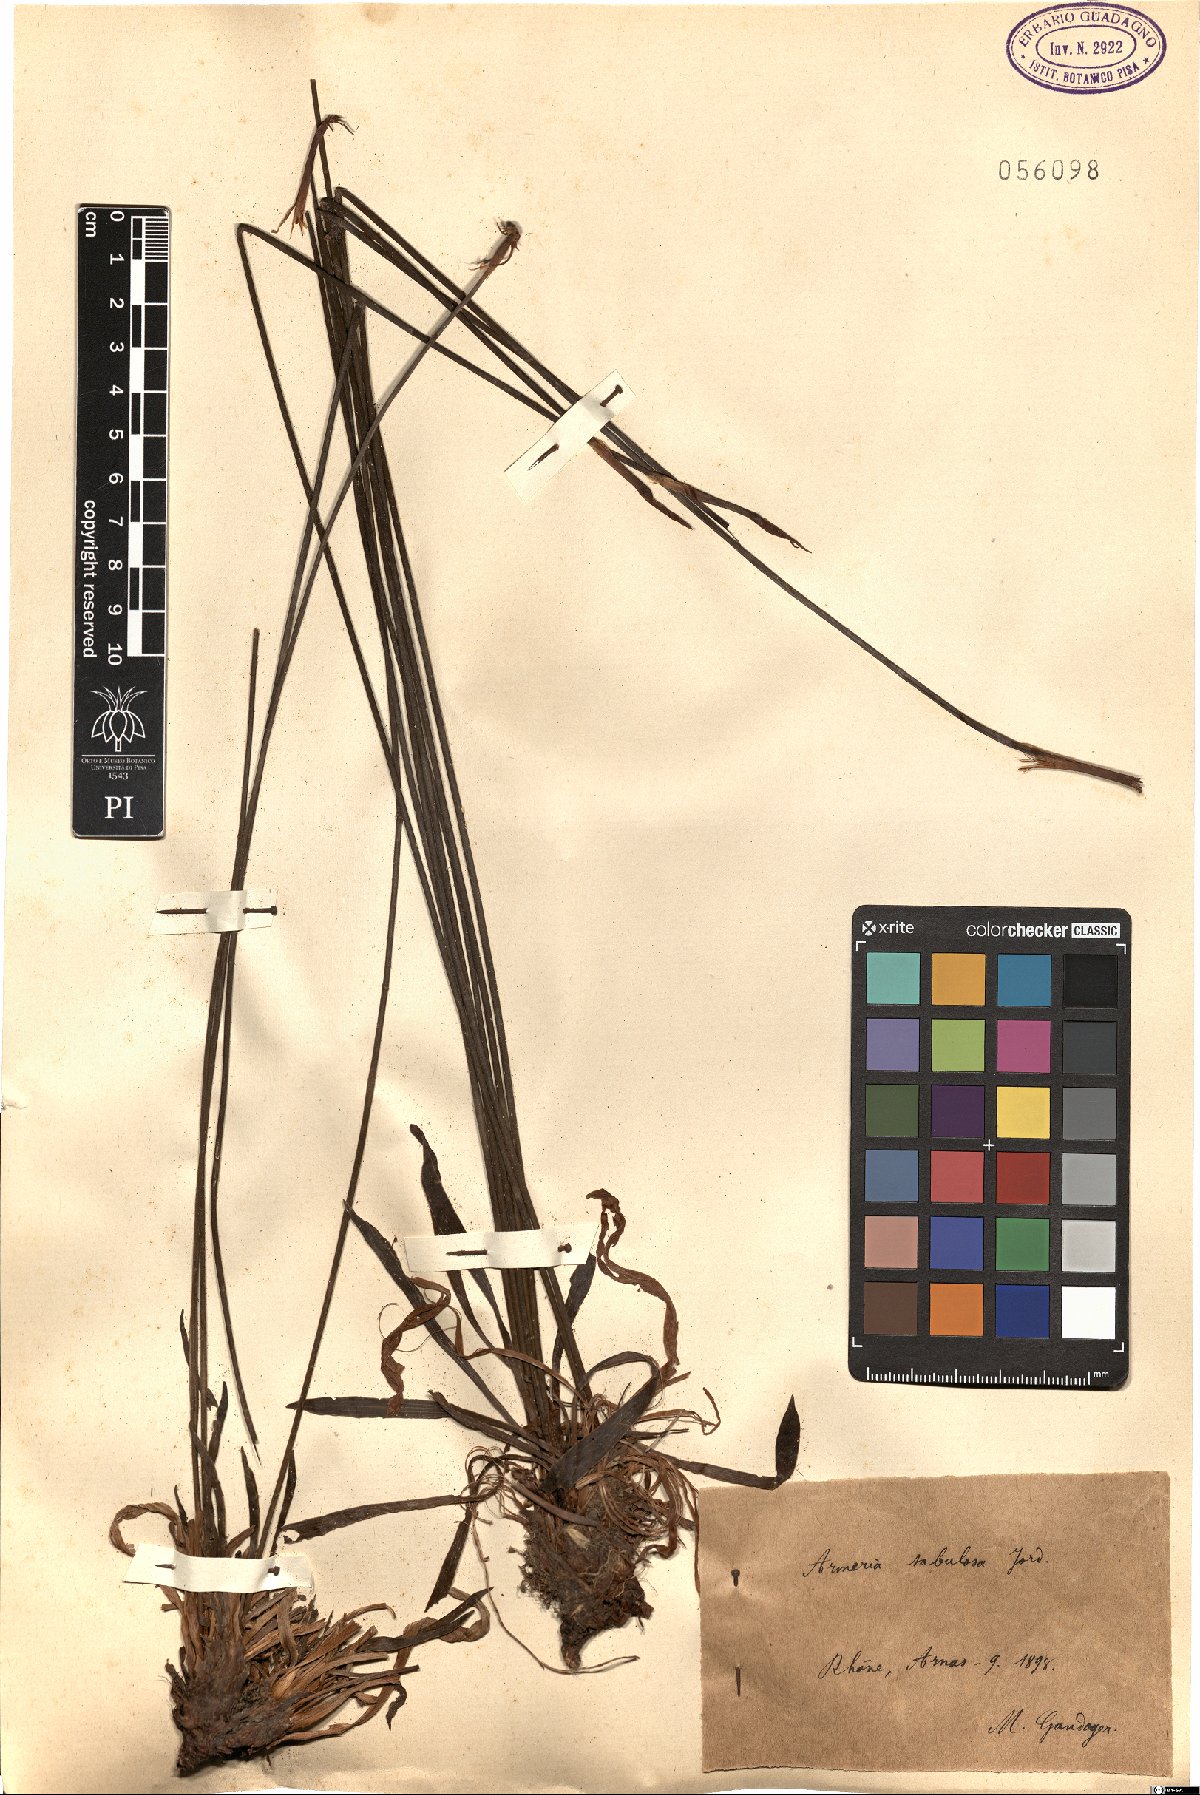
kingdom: Plantae
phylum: Tracheophyta
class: Magnoliopsida
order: Caryophyllales
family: Plumbaginaceae
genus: Armeria
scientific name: Armeria alliacea
